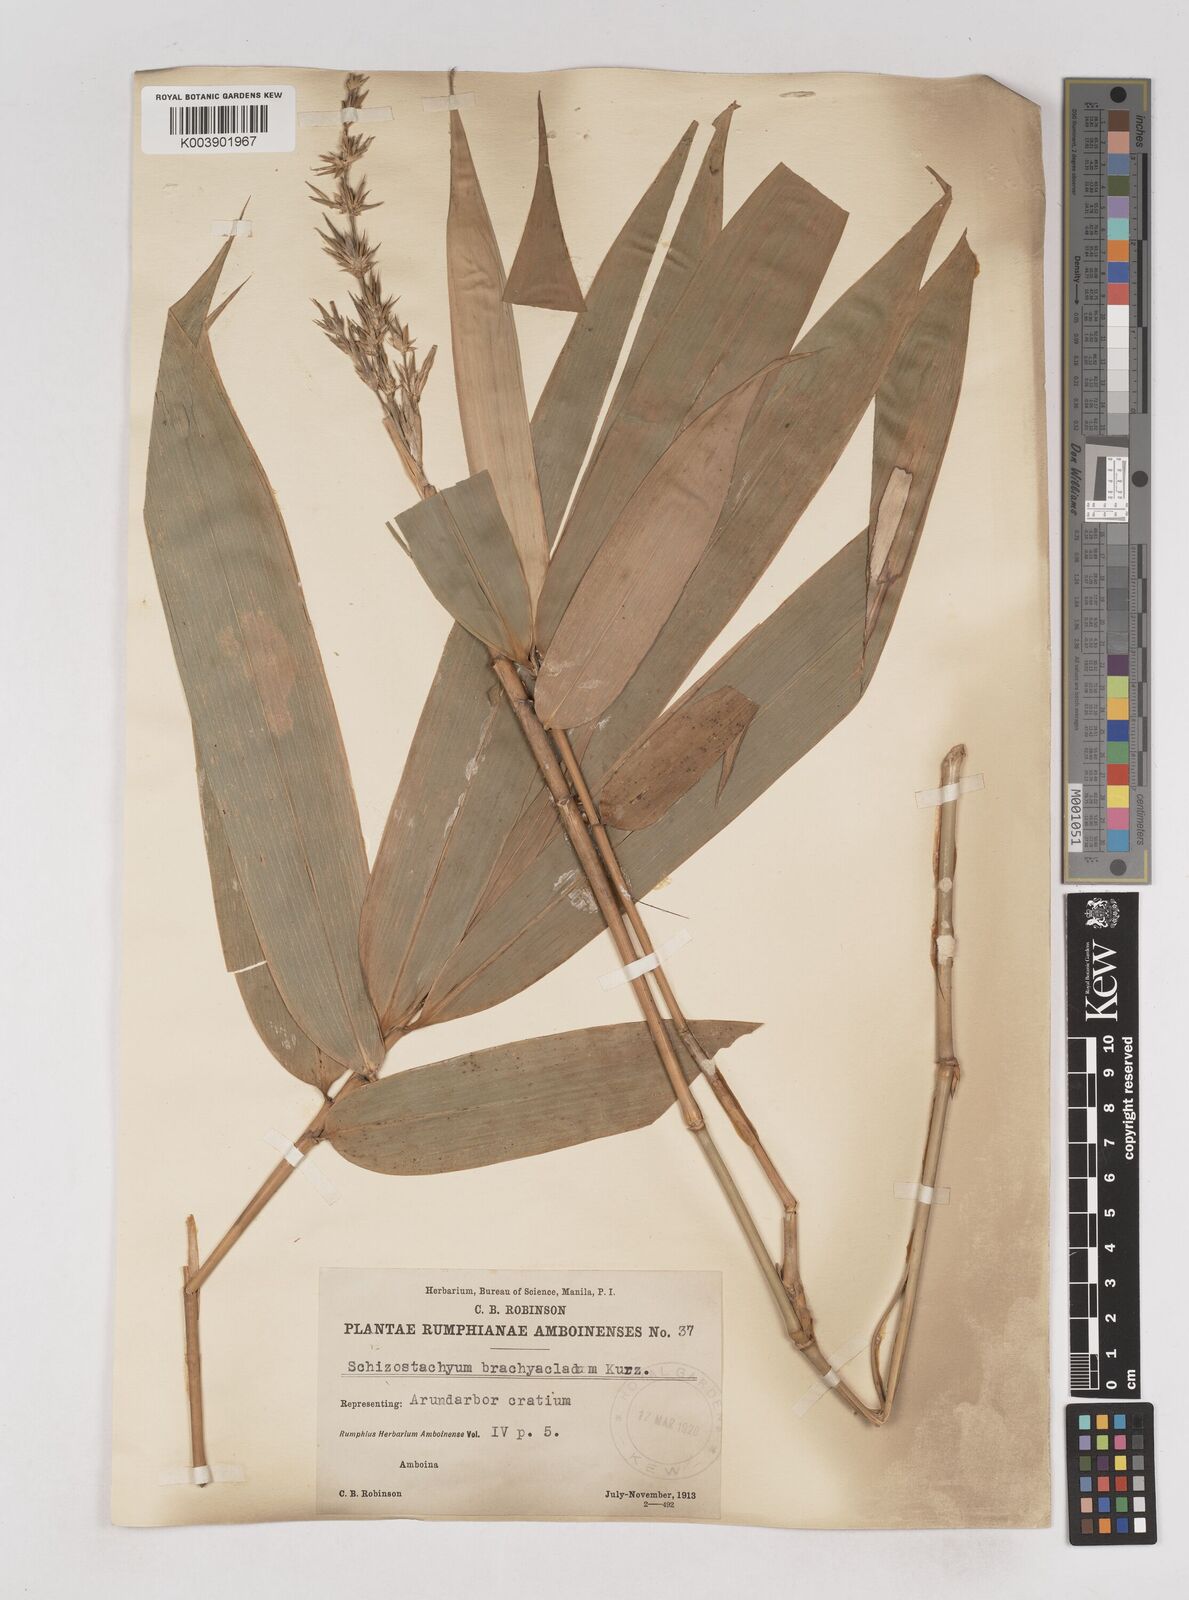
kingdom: Plantae
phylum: Tracheophyta
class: Liliopsida
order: Poales
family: Poaceae
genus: Schizostachyum
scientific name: Schizostachyum brachycladum
